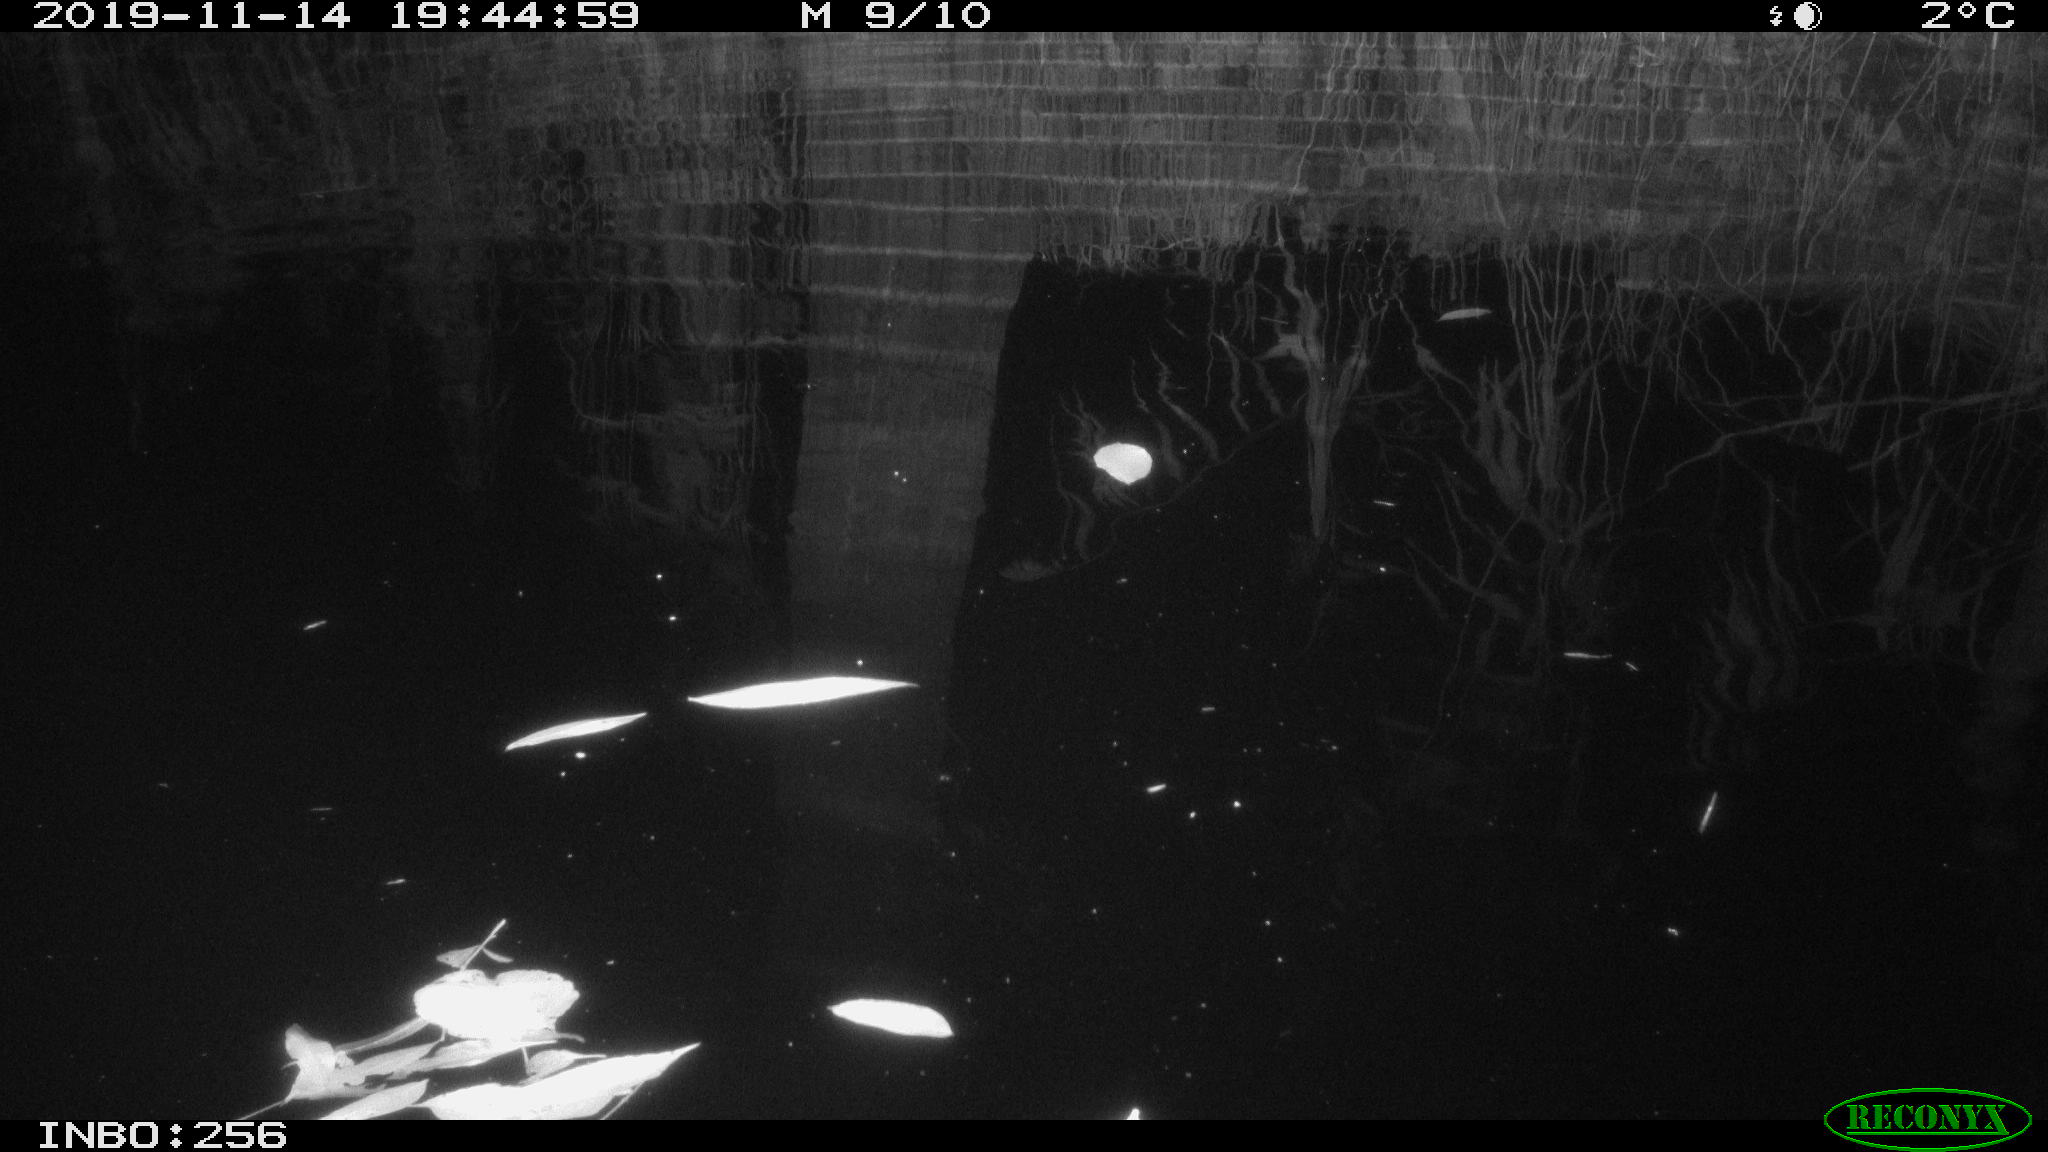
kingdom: Animalia
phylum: Chordata
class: Mammalia
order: Rodentia
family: Muridae
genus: Rattus
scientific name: Rattus norvegicus
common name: Brown rat
